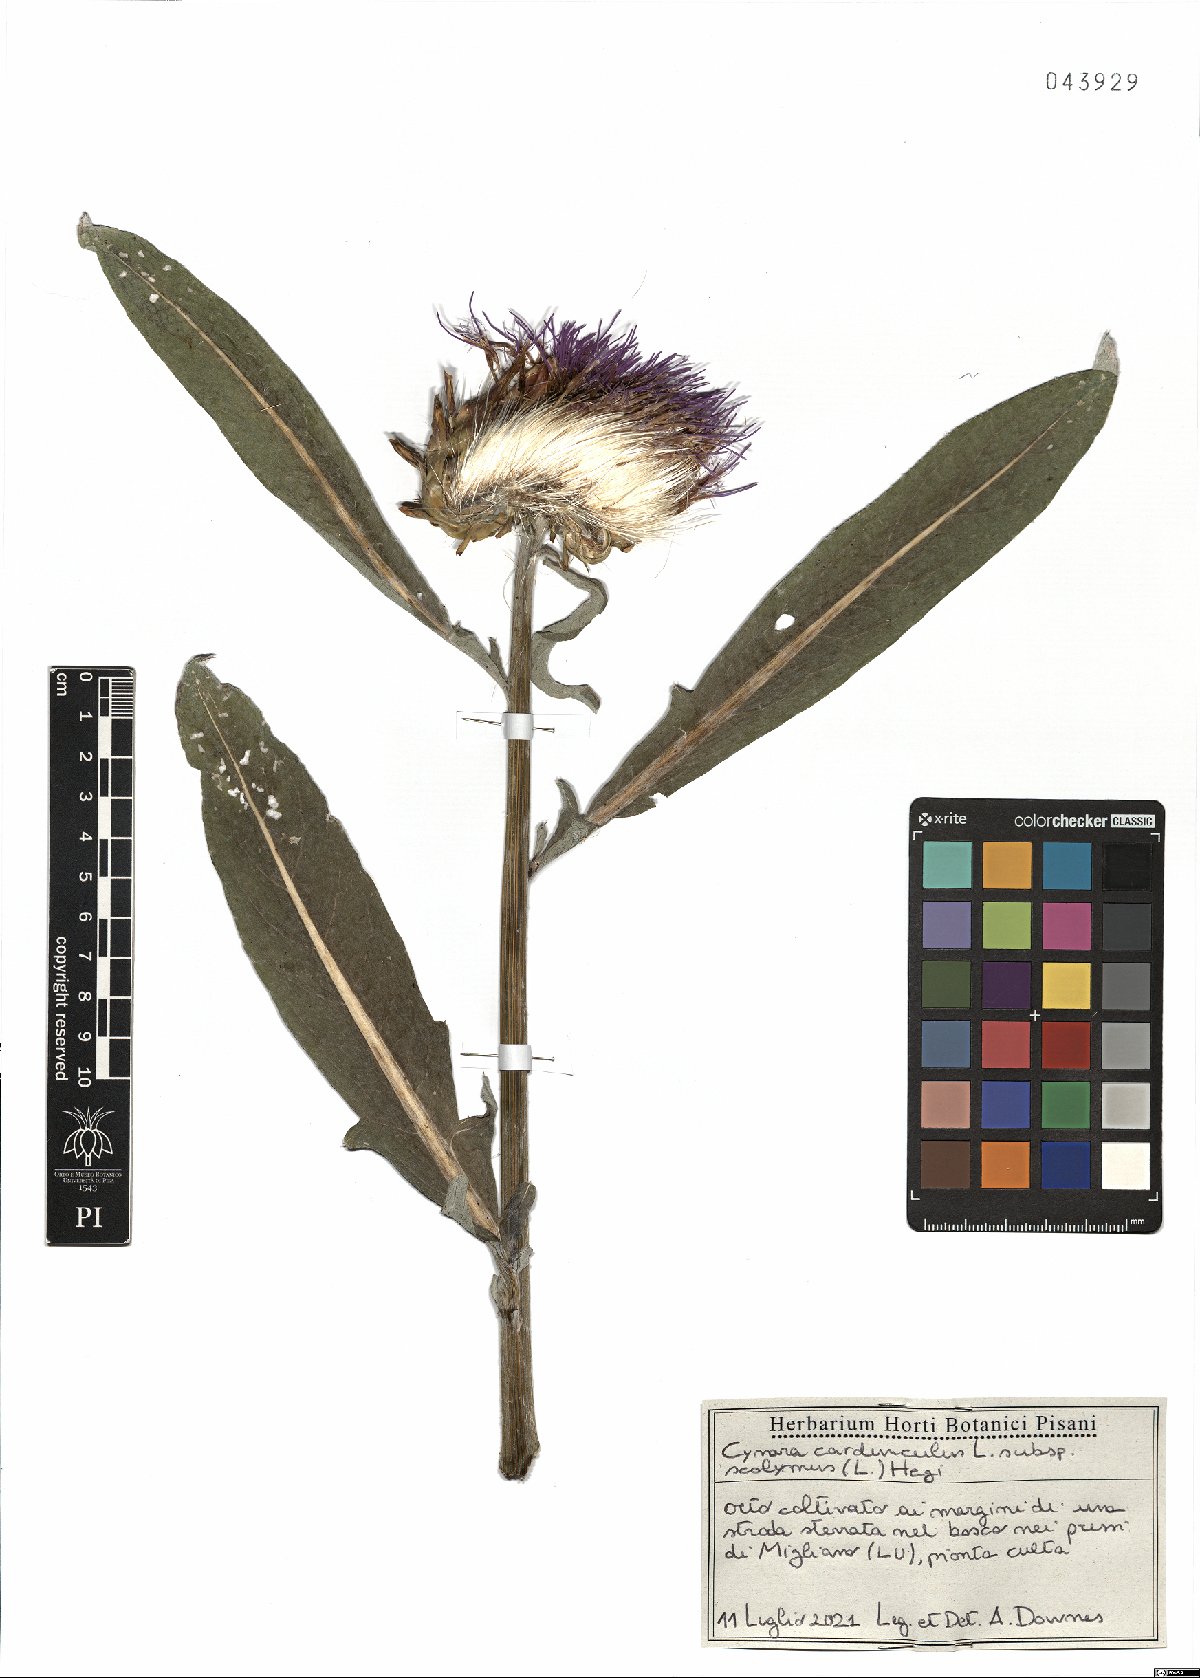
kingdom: Plantae
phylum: Tracheophyta
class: Magnoliopsida
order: Asterales
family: Asteraceae
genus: Cynara
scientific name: Cynara scolymus
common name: Globe artichoke
